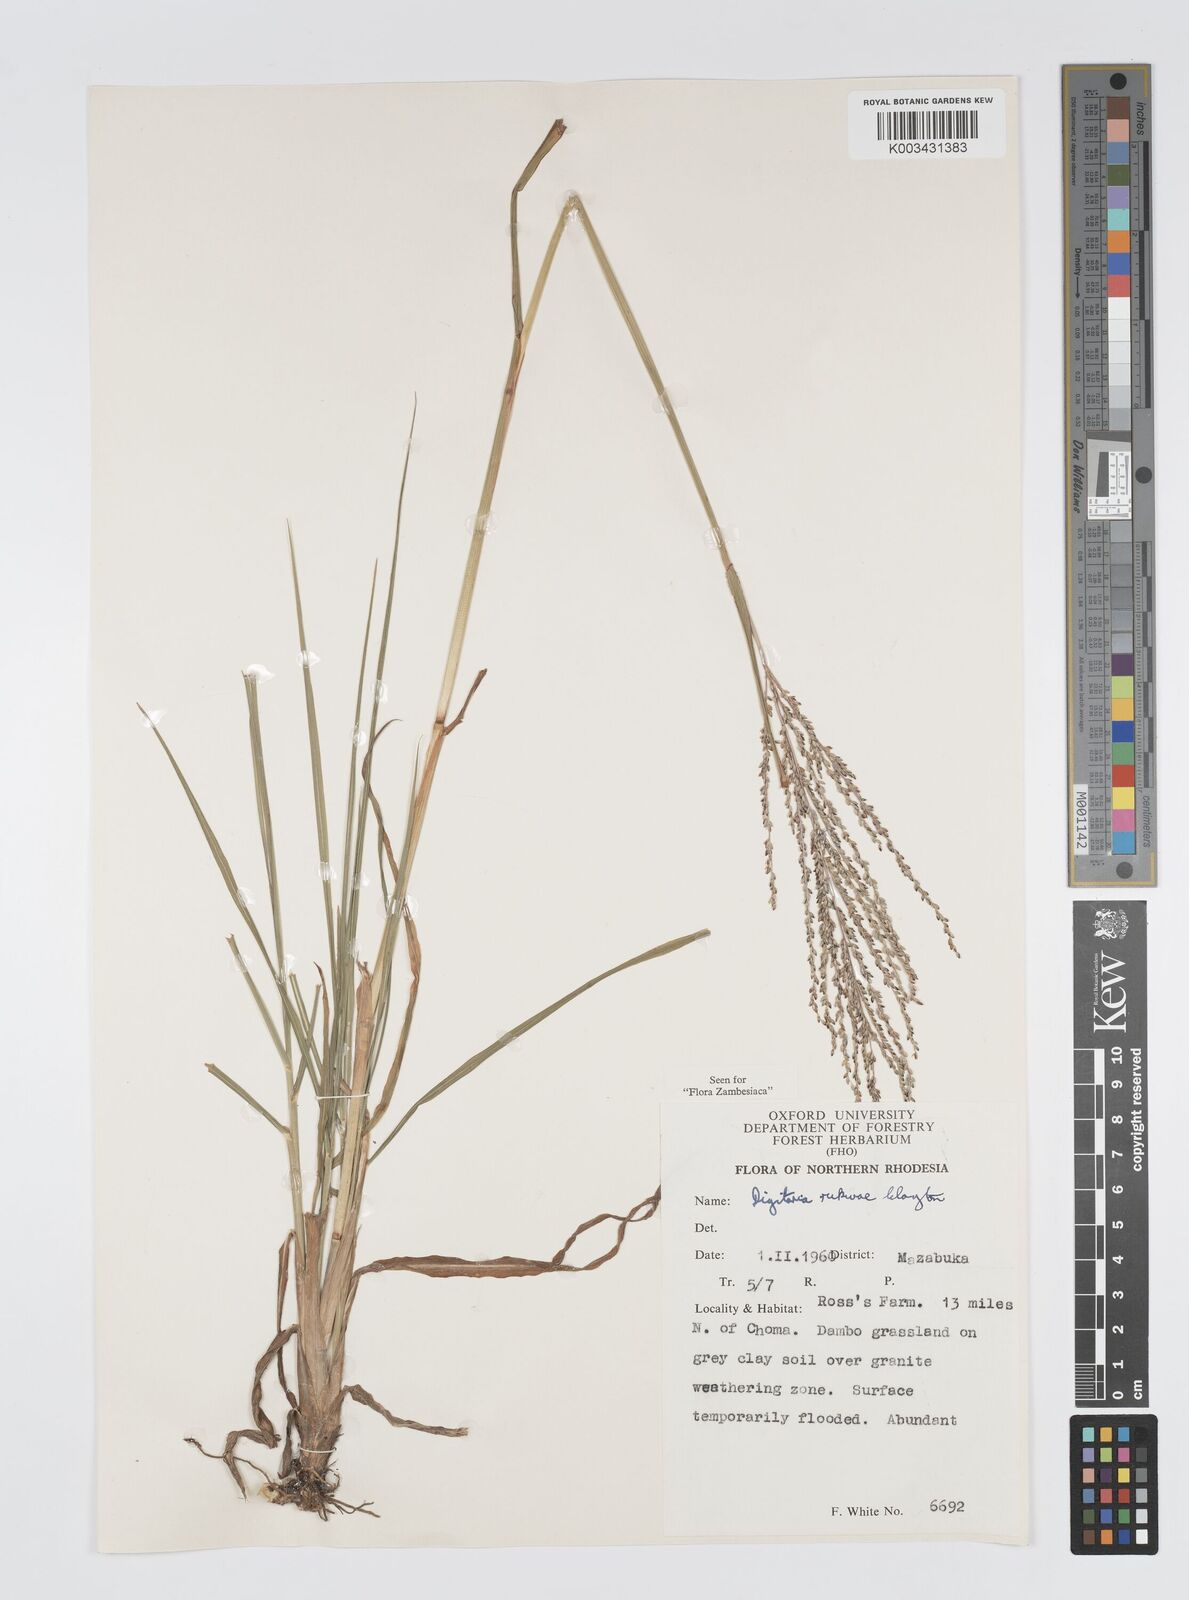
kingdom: Plantae
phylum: Tracheophyta
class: Liliopsida
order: Poales
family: Poaceae
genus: Digitaria
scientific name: Digitaria rukwae
